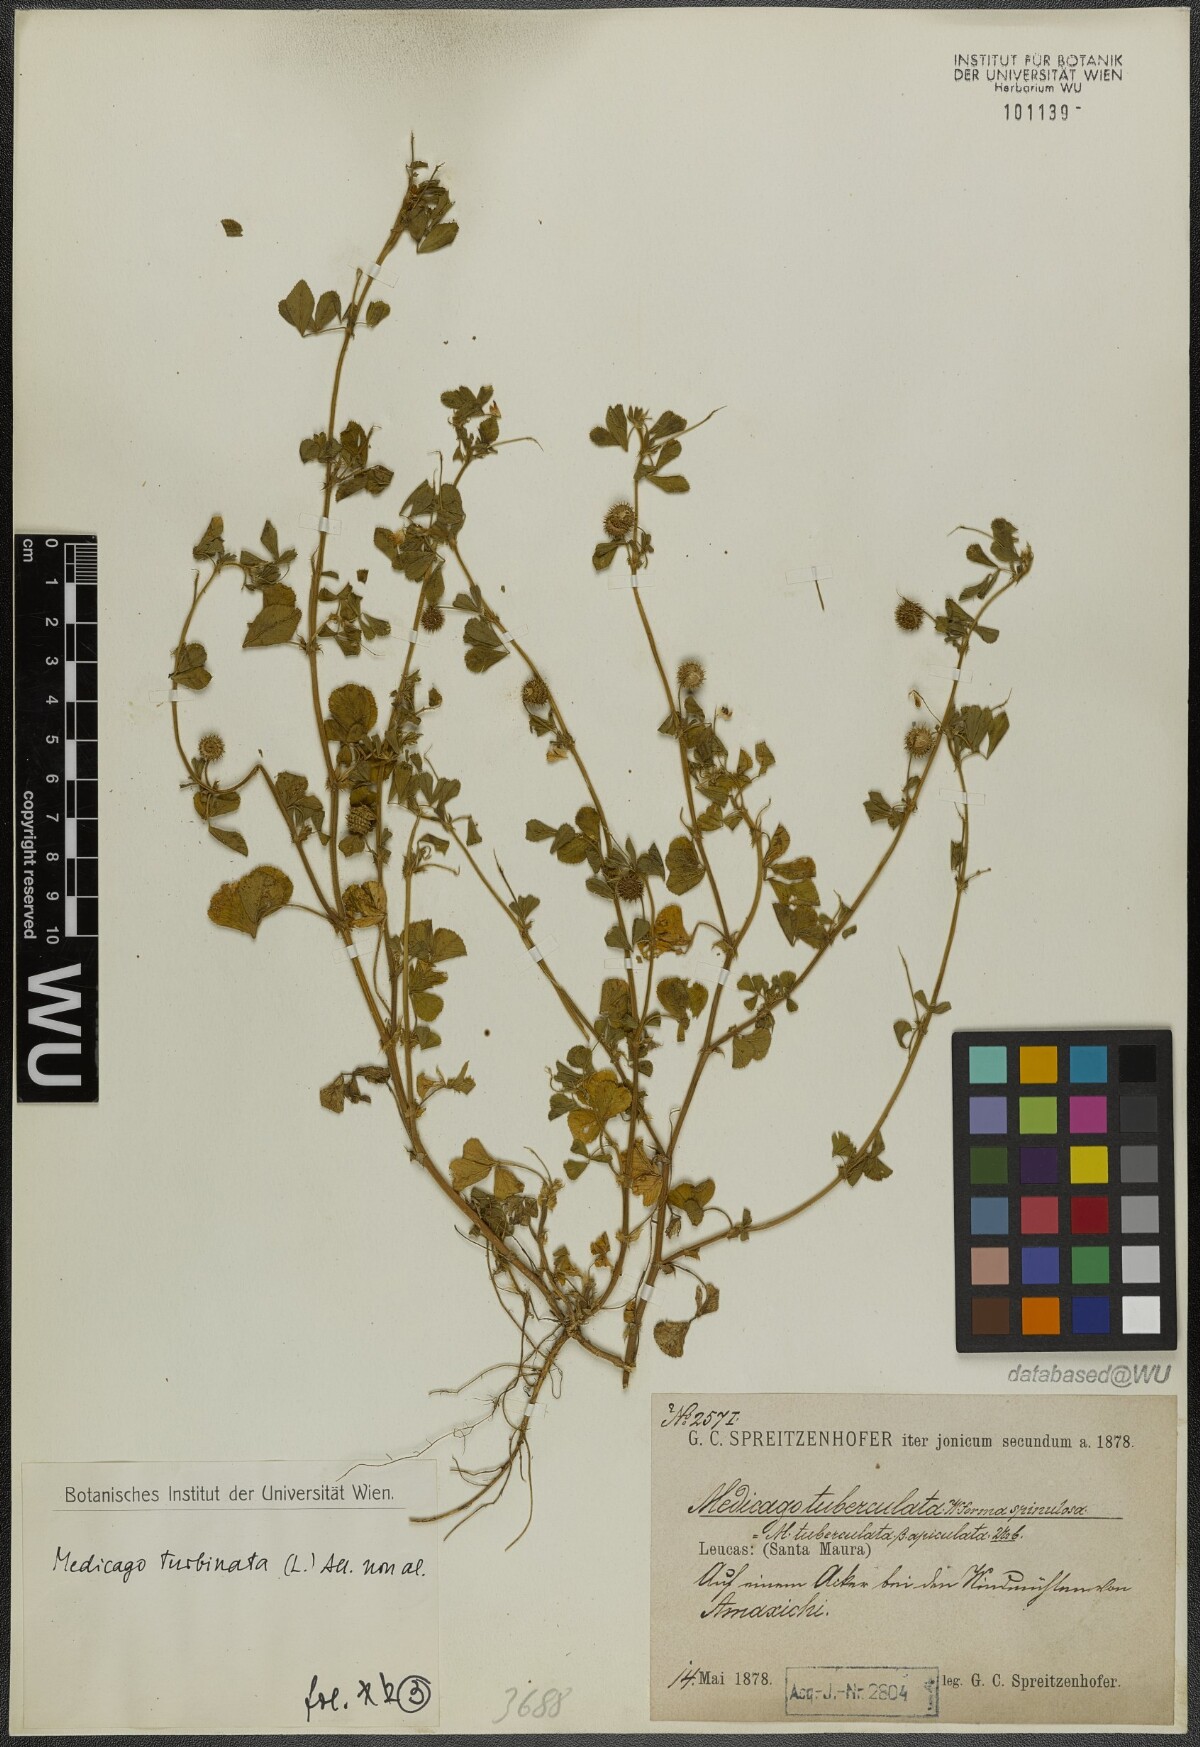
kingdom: Plantae
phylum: Tracheophyta
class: Magnoliopsida
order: Fabales
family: Fabaceae
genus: Medicago
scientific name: Medicago turbinata
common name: Southern medick
